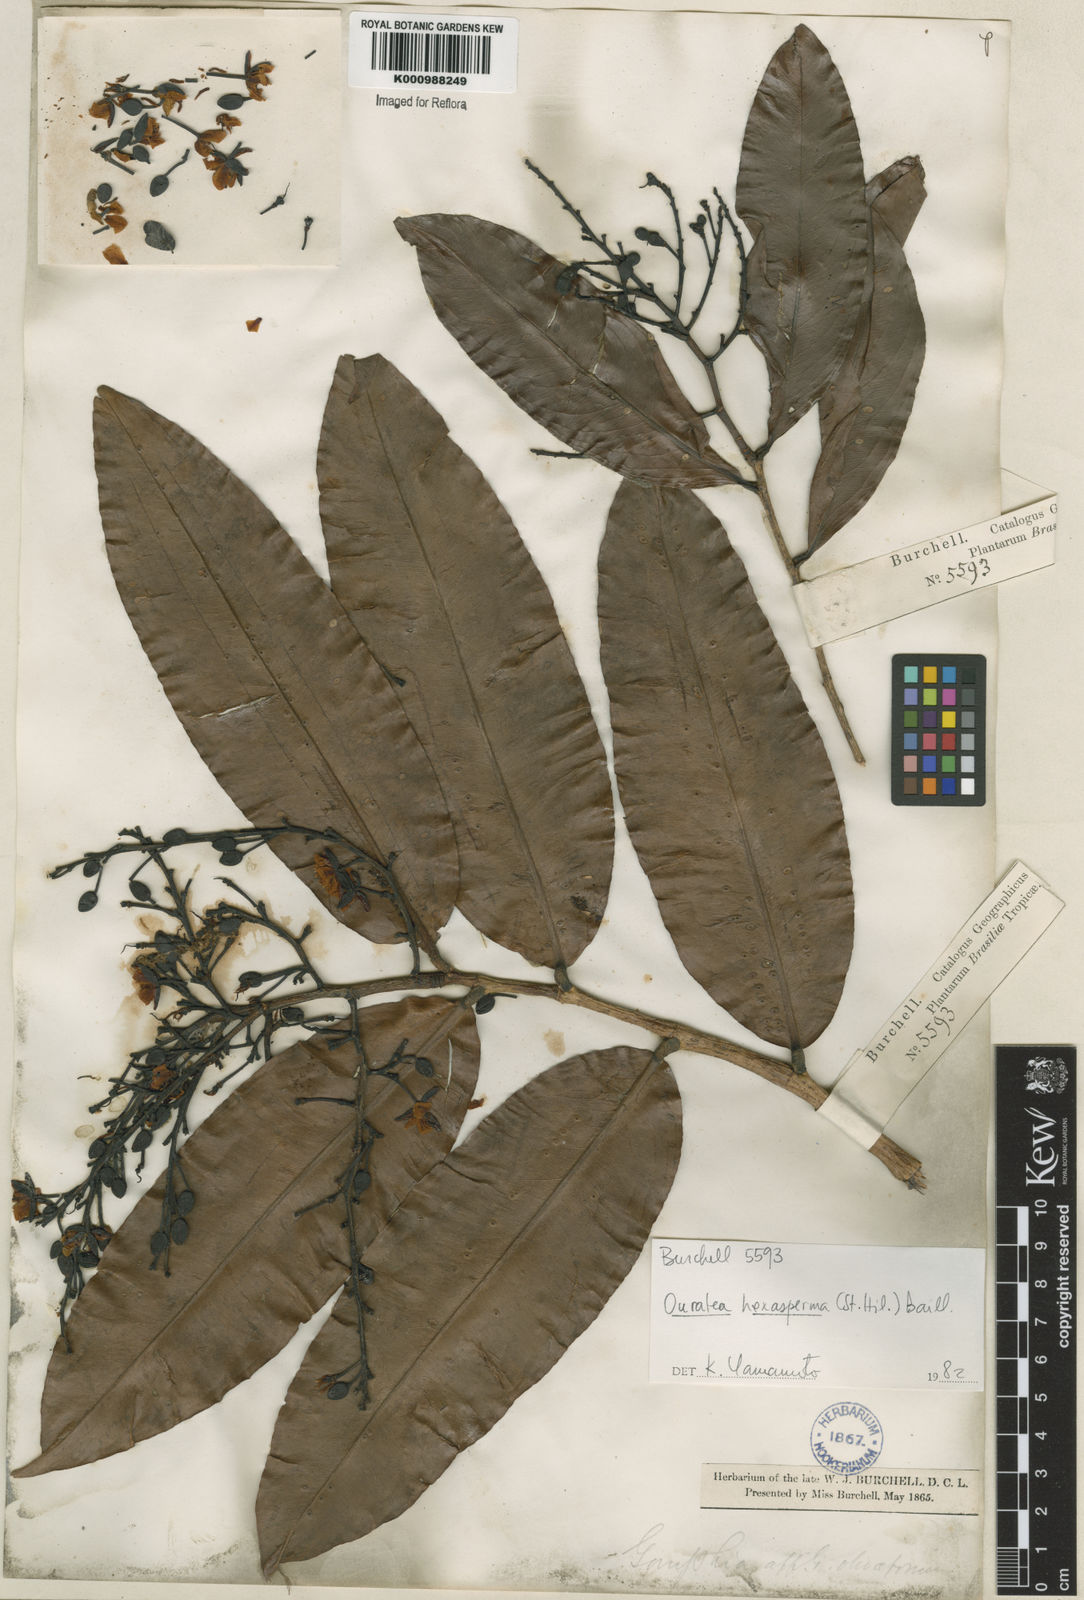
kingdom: Plantae
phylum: Tracheophyta
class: Magnoliopsida
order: Malpighiales
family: Ochnaceae
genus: Ouratea
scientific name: Ouratea hexasperma
